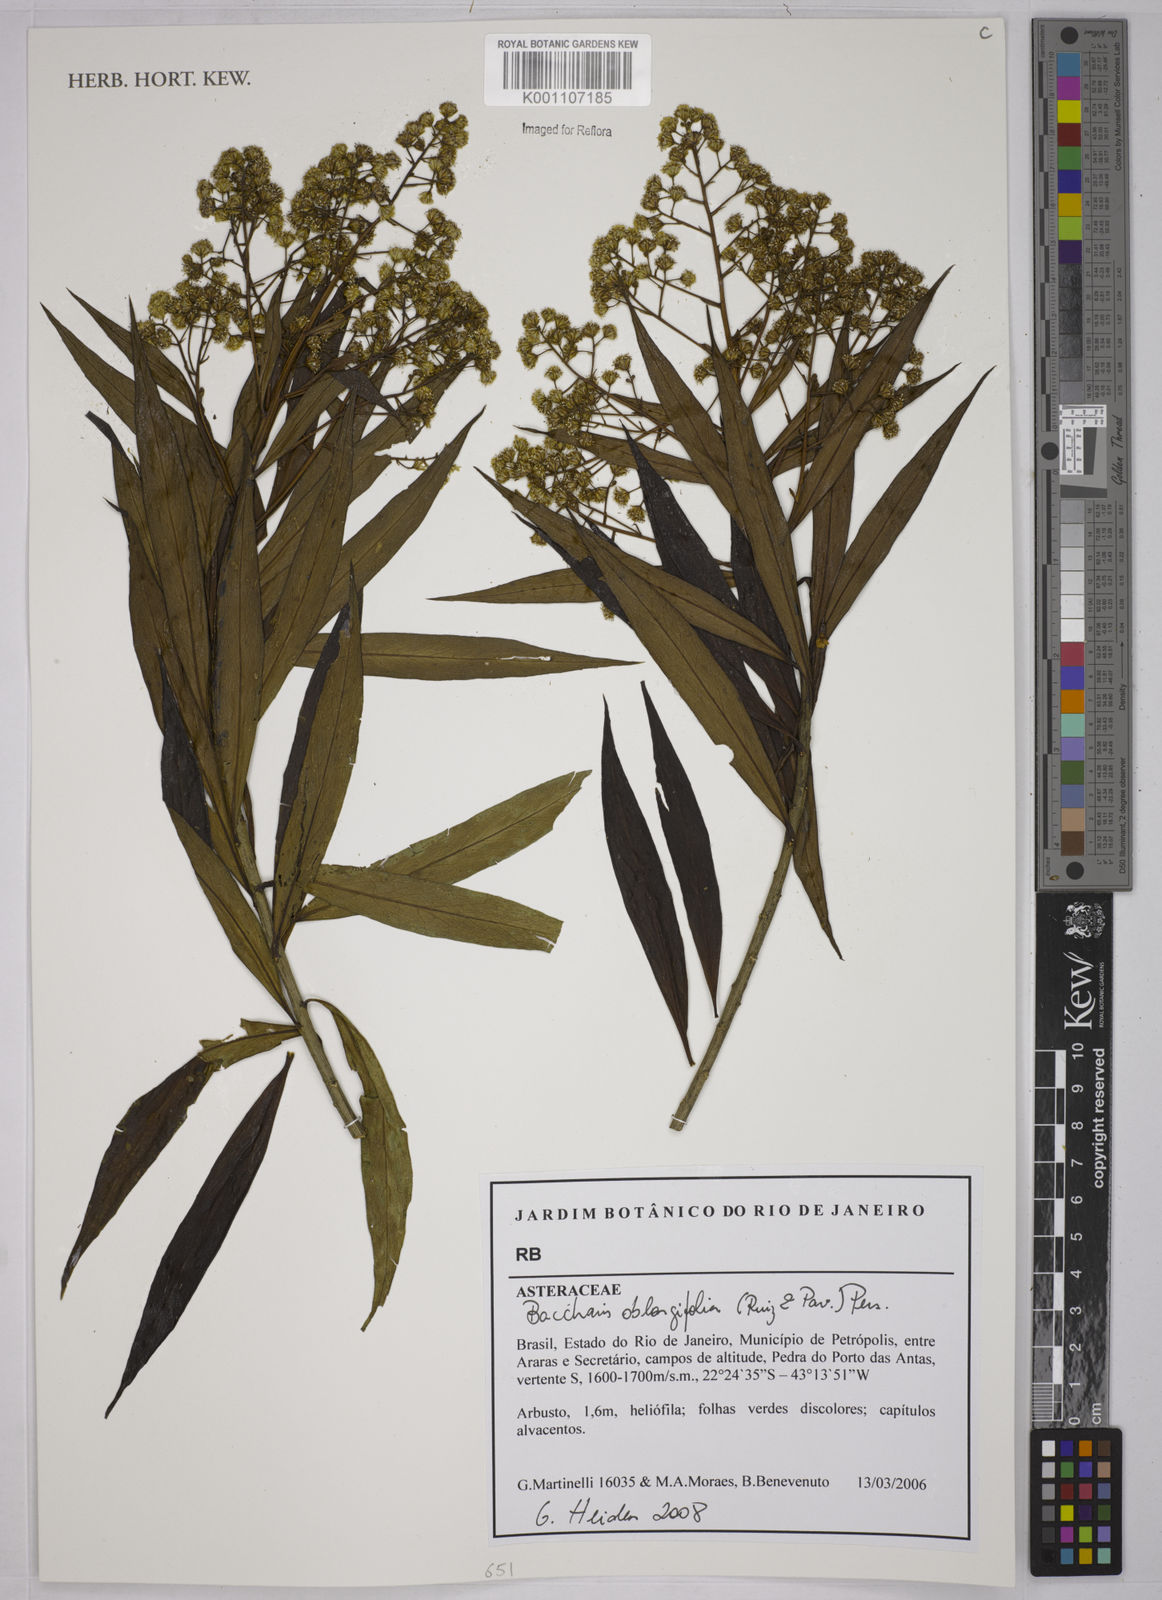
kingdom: Plantae
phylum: Tracheophyta
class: Magnoliopsida
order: Asterales
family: Asteraceae
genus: Baccharis
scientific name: Baccharis oblongifolia
